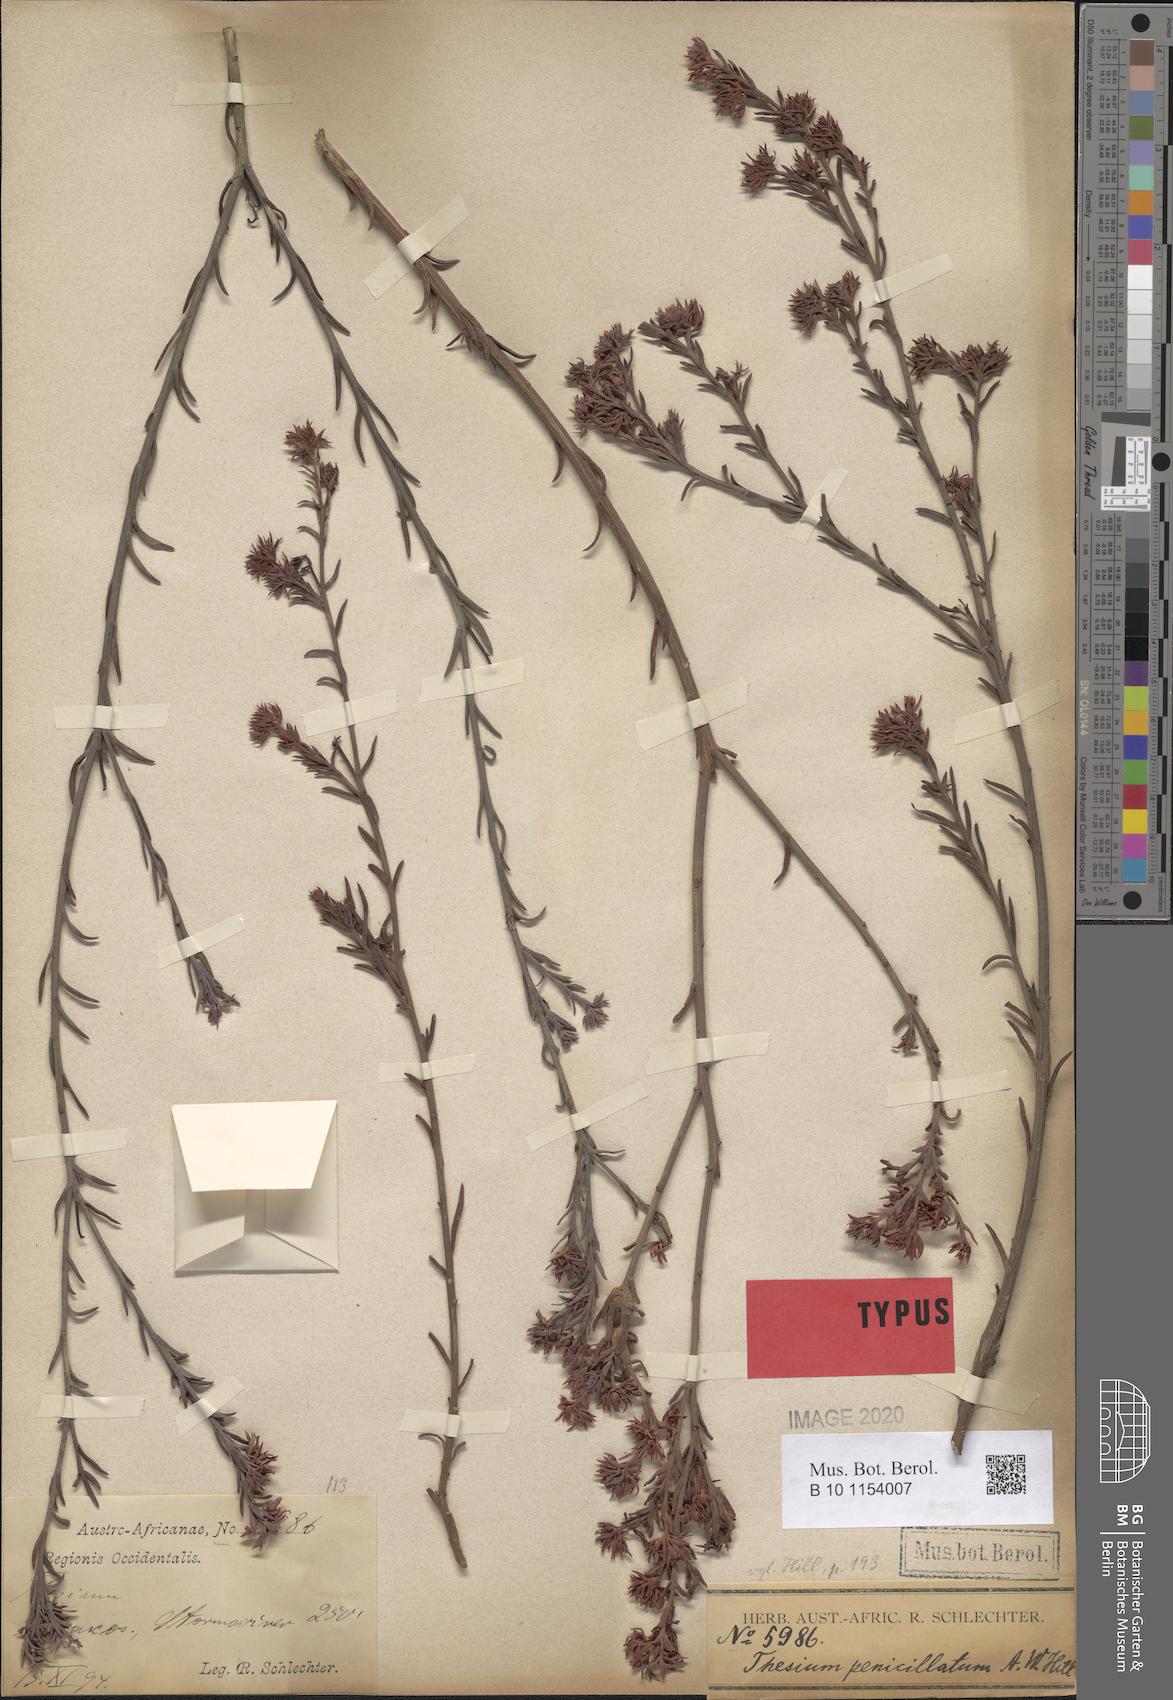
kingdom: Plantae
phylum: Tracheophyta
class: Magnoliopsida
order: Santalales
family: Thesiaceae
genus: Thesium
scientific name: Thesium penicillatum
